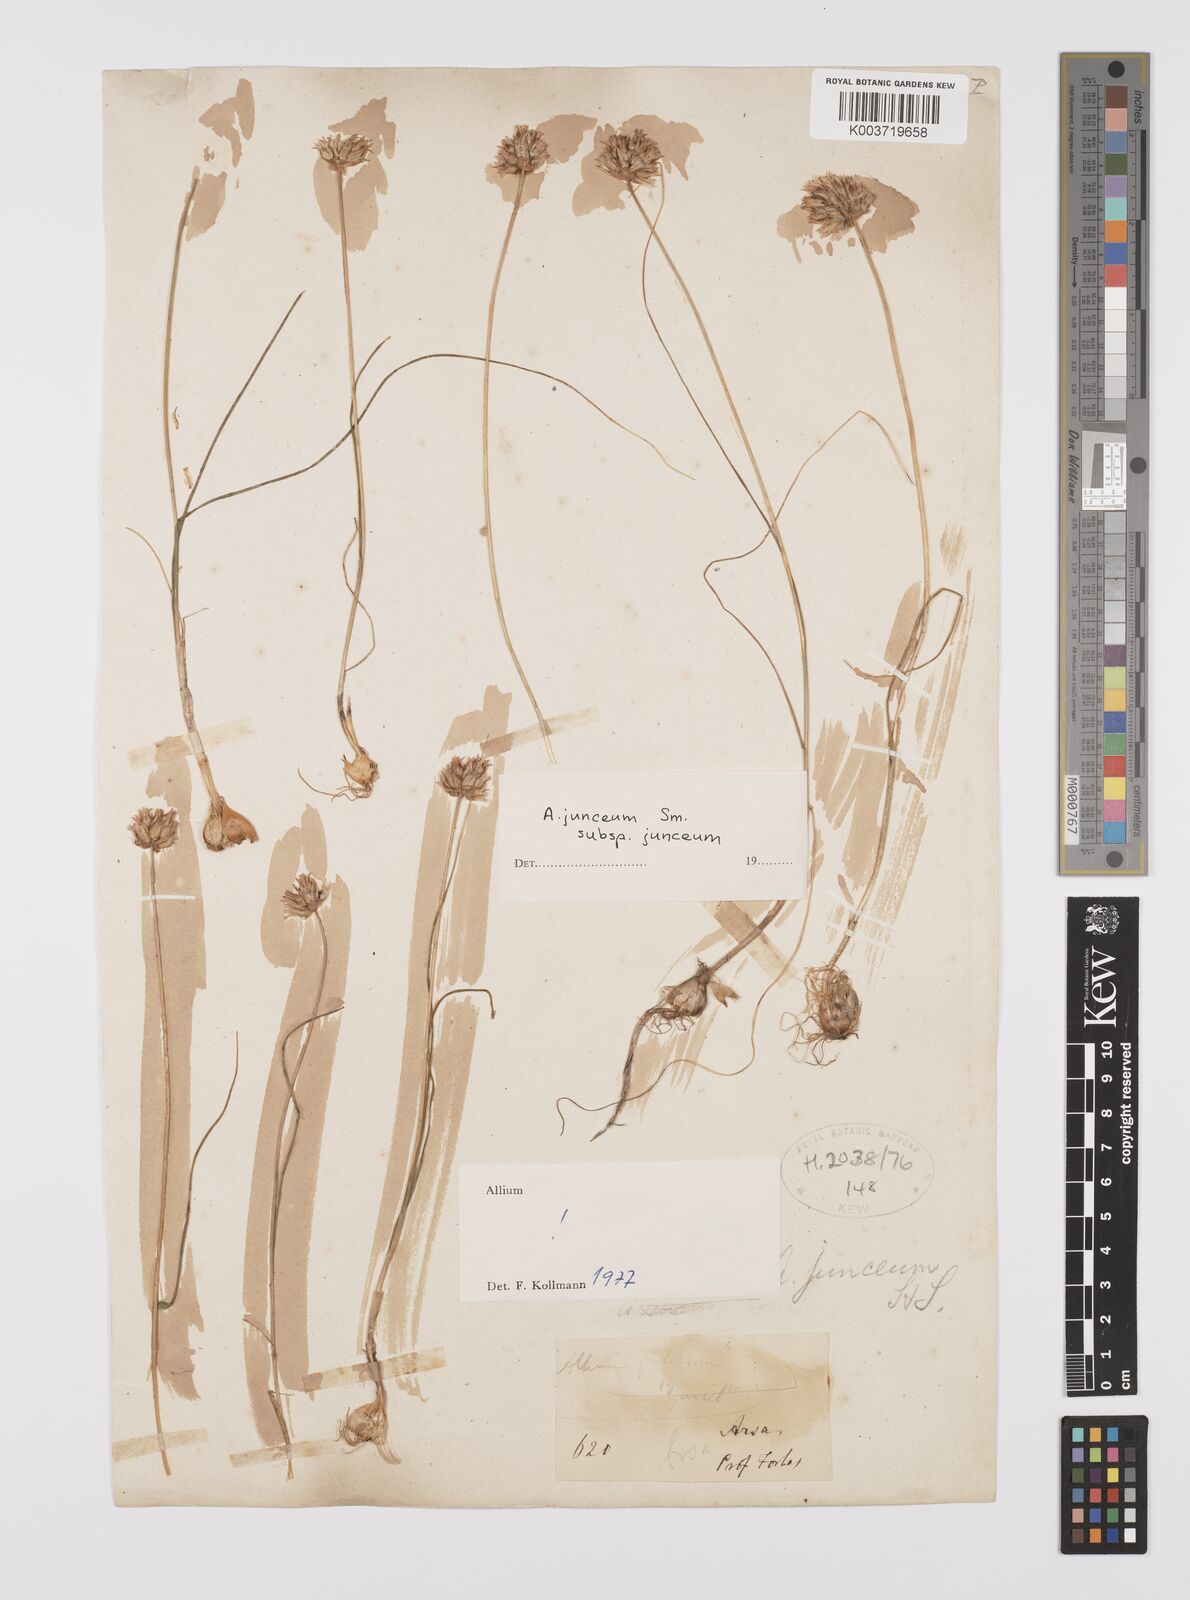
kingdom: Plantae
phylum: Tracheophyta
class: Liliopsida
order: Asparagales
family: Amaryllidaceae
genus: Allium
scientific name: Allium junceum
